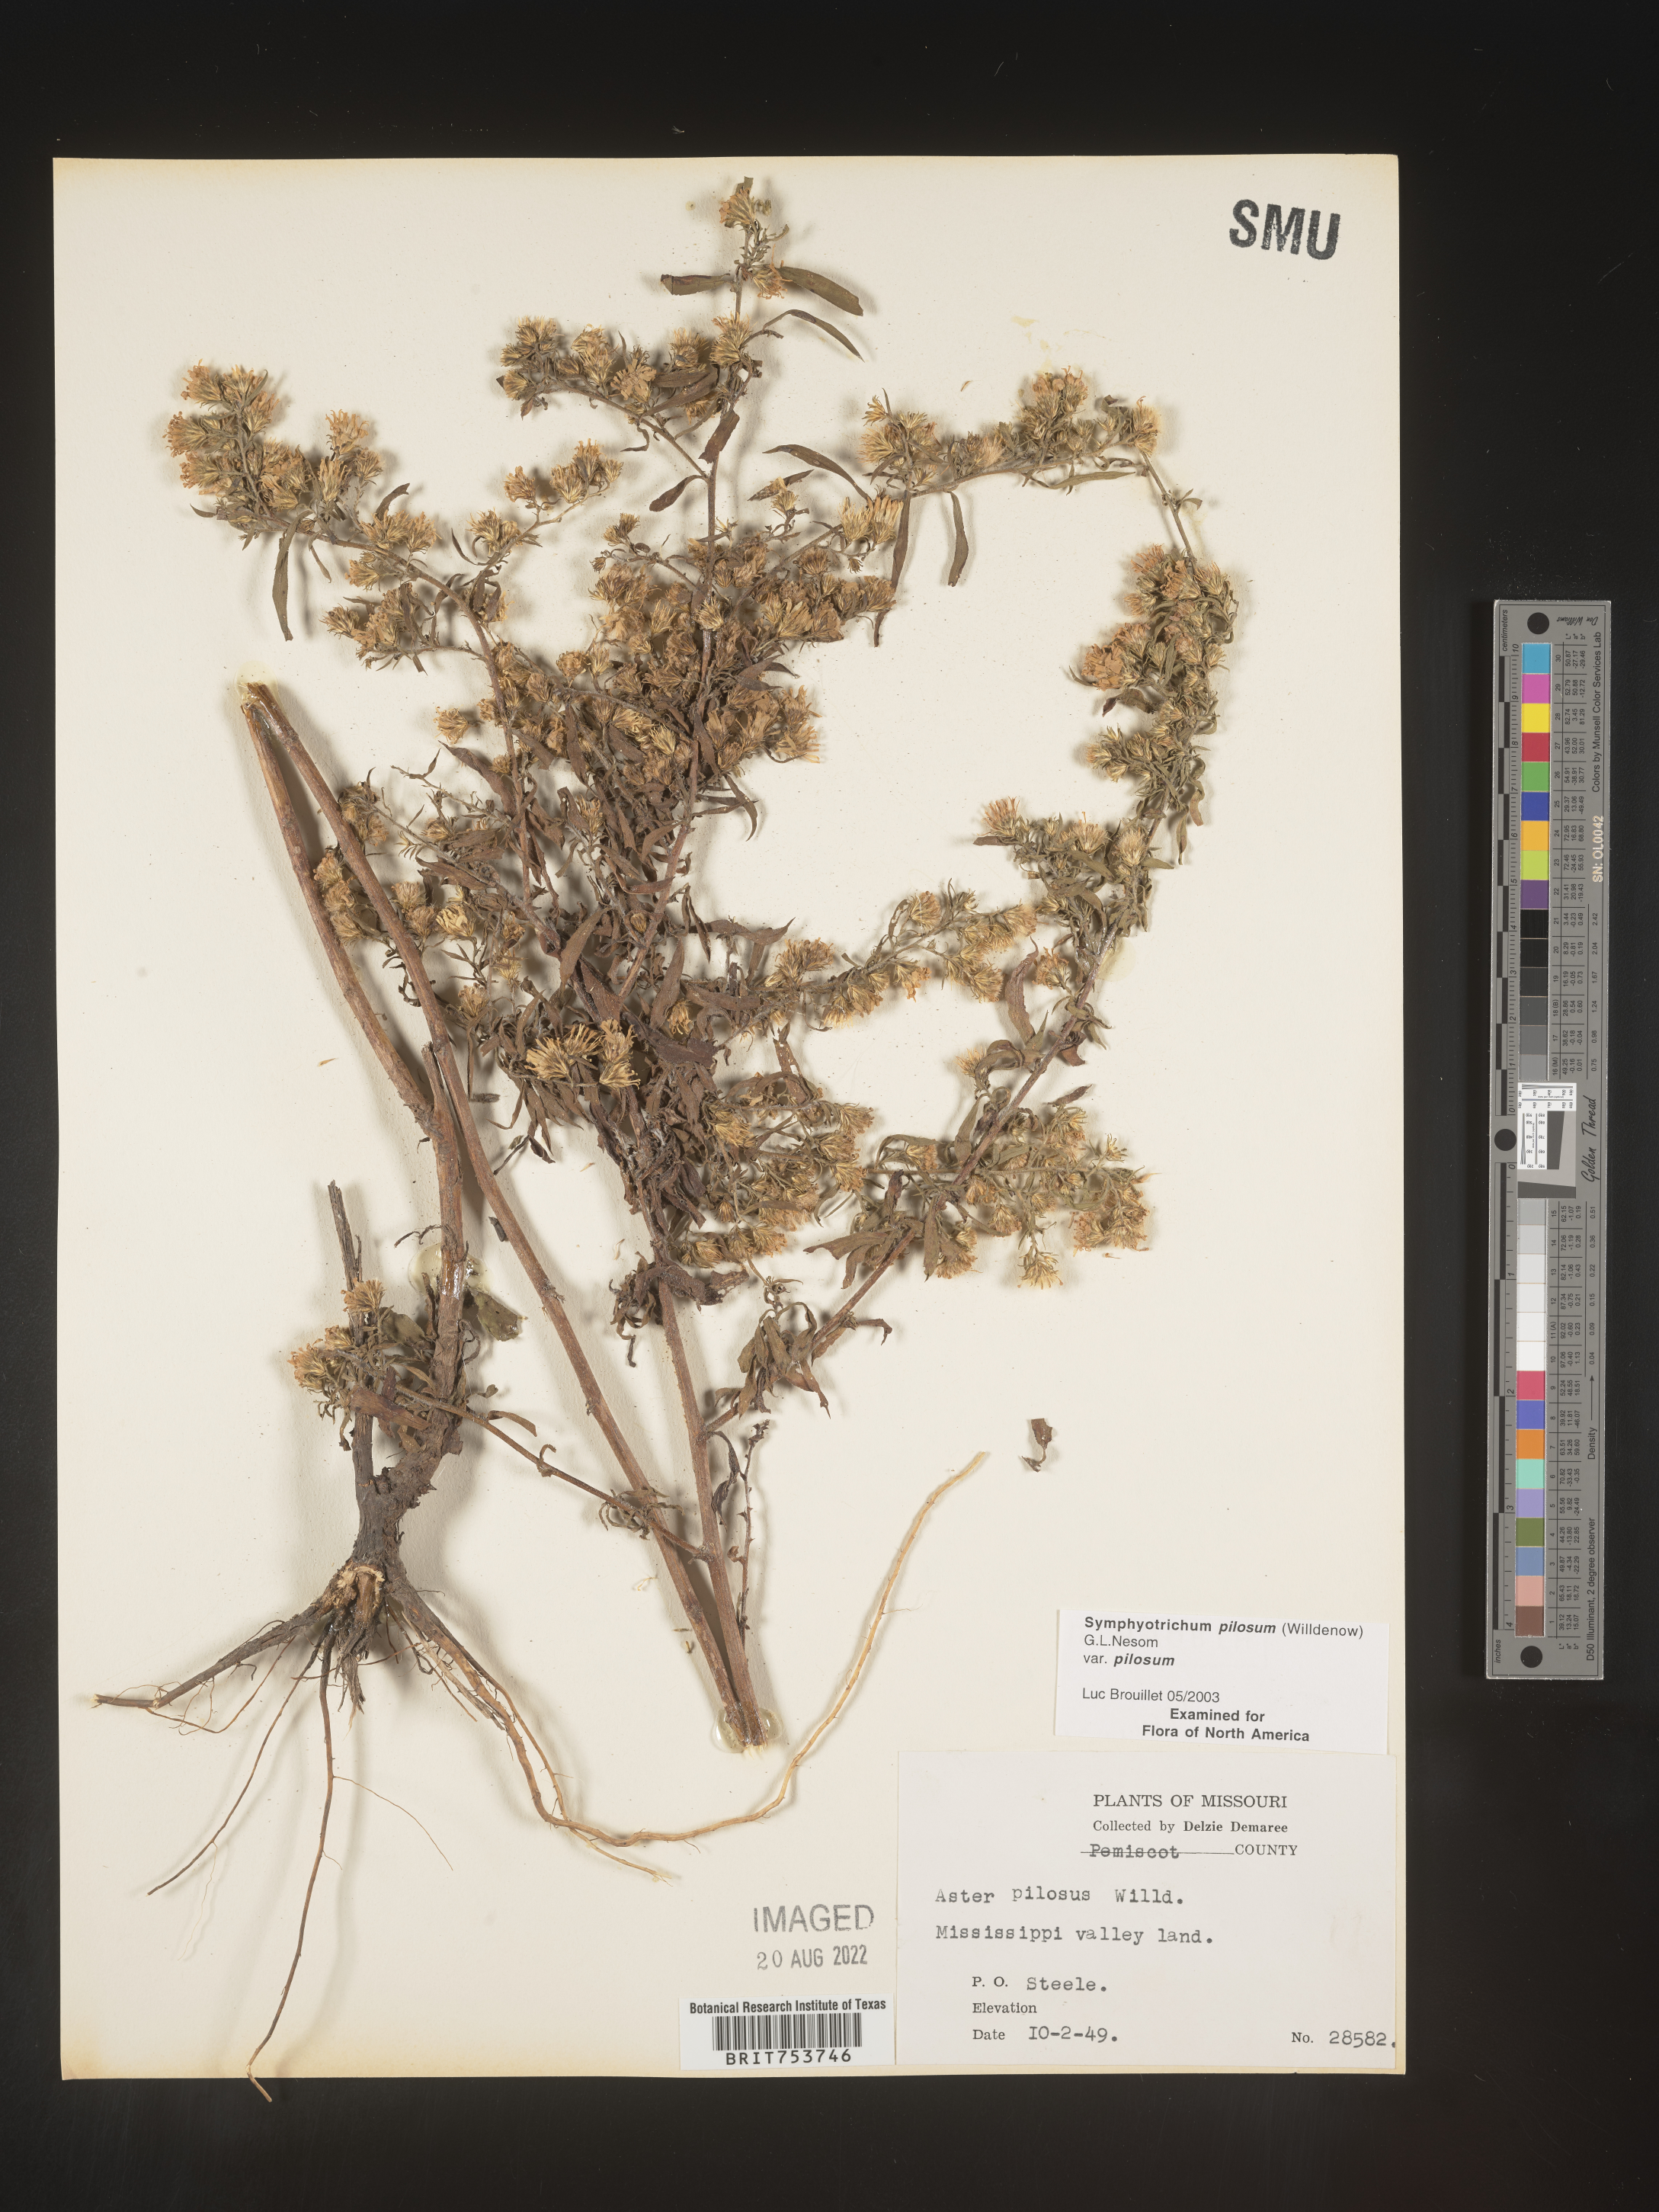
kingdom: Plantae
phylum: Tracheophyta
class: Magnoliopsida
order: Asterales
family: Asteraceae
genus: Symphyotrichum
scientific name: Symphyotrichum pilosum
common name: Awl aster
